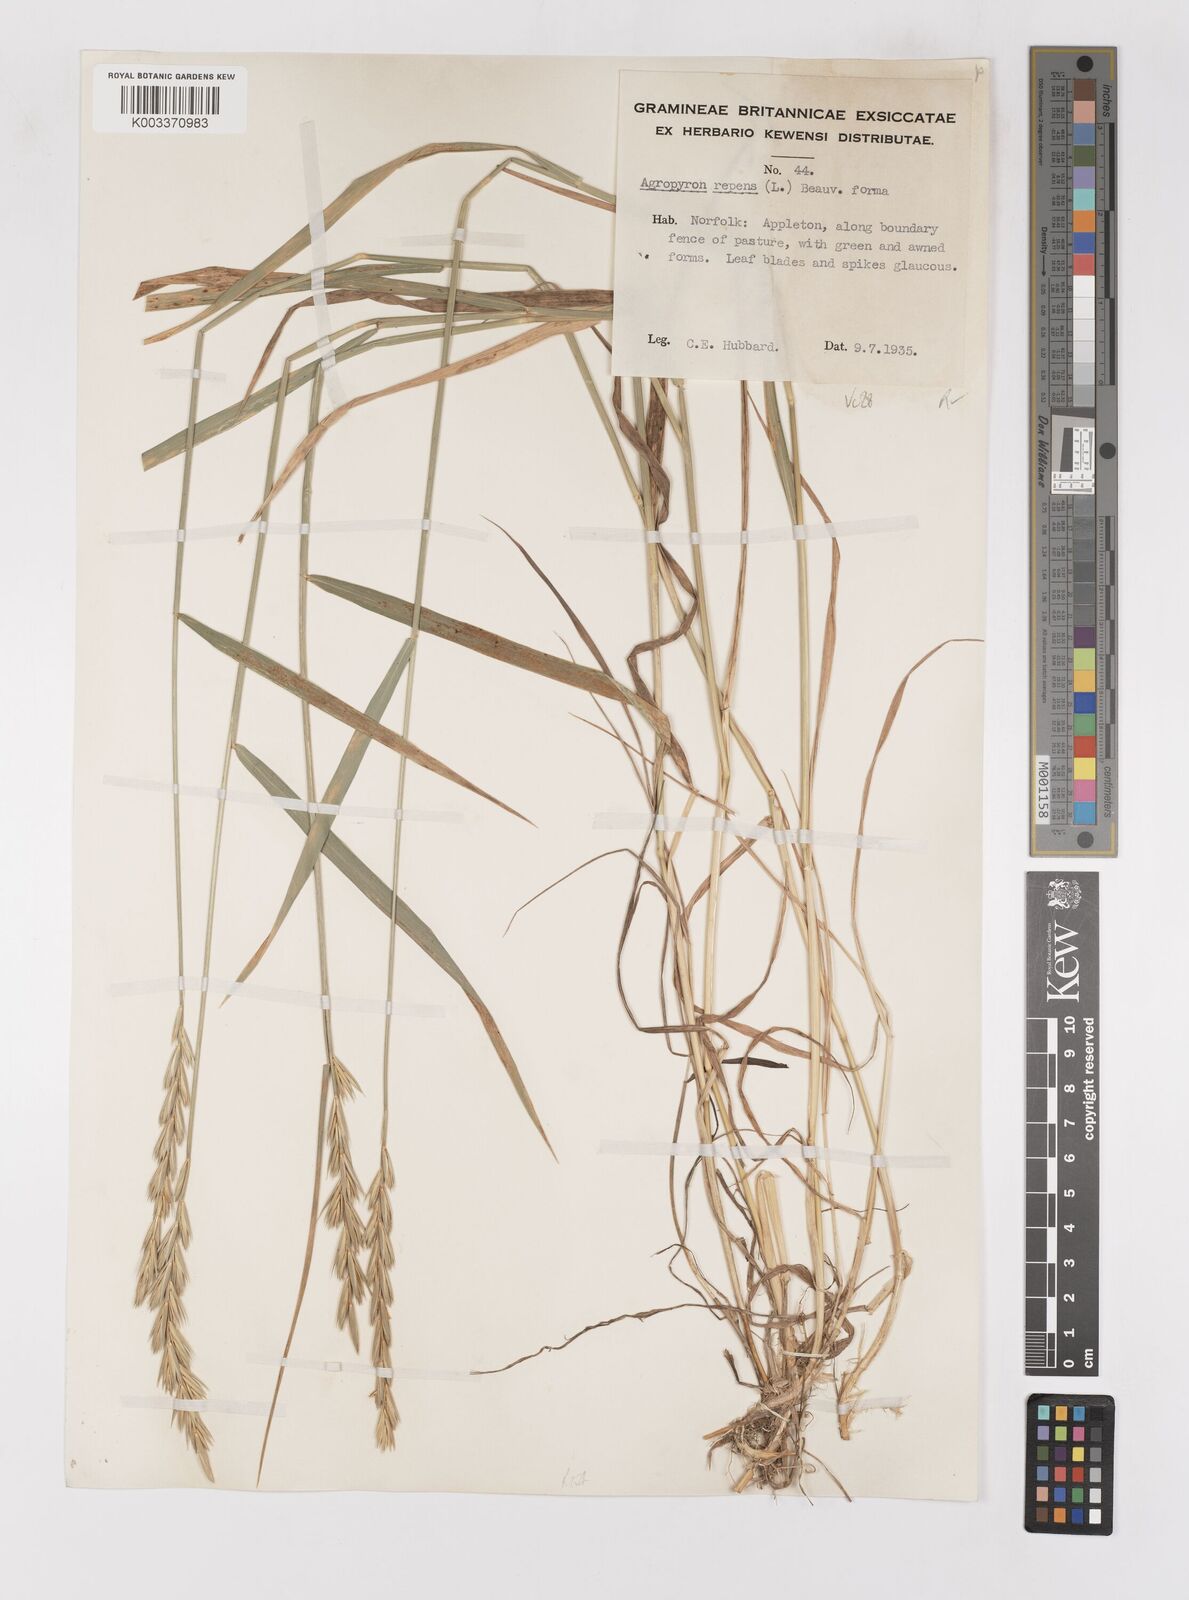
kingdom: Plantae
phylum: Tracheophyta
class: Liliopsida
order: Poales
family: Poaceae
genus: Elymus
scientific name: Elymus repens
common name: Quackgrass
